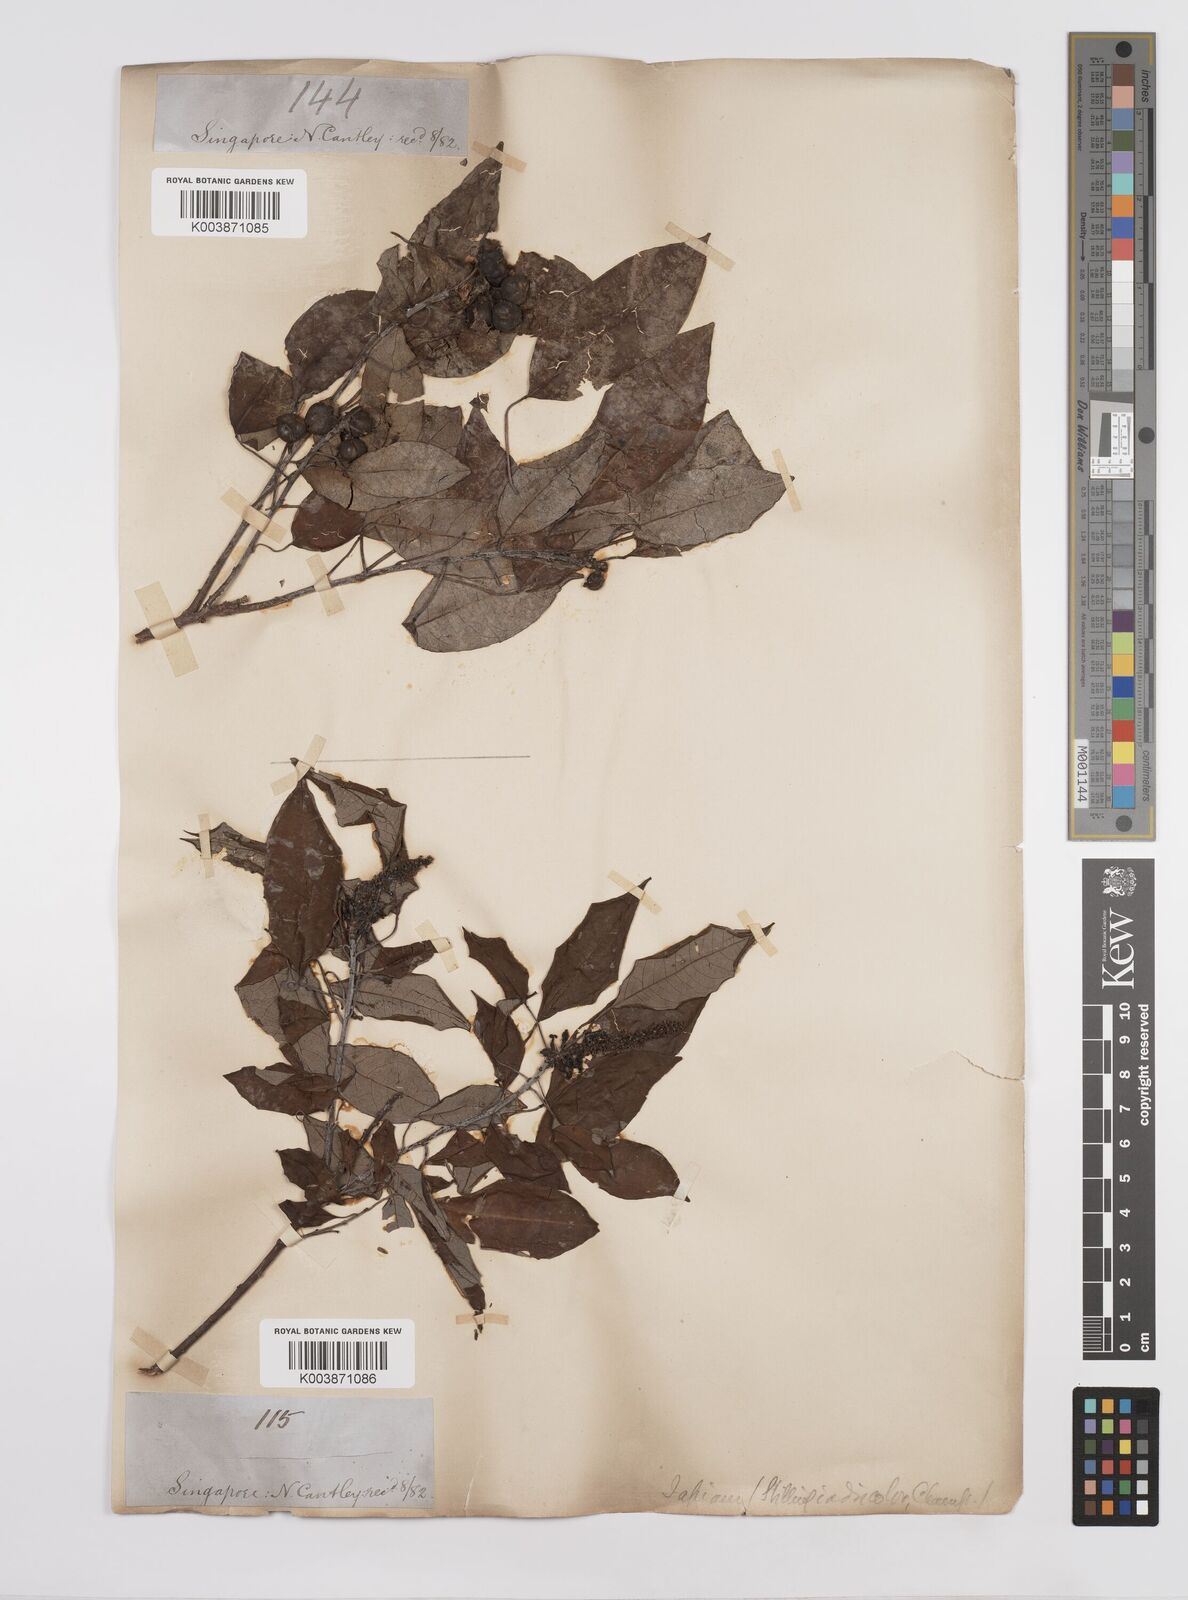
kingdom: Plantae
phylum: Tracheophyta
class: Magnoliopsida
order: Malpighiales
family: Euphorbiaceae
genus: Triadica
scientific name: Triadica cochinchinensis
